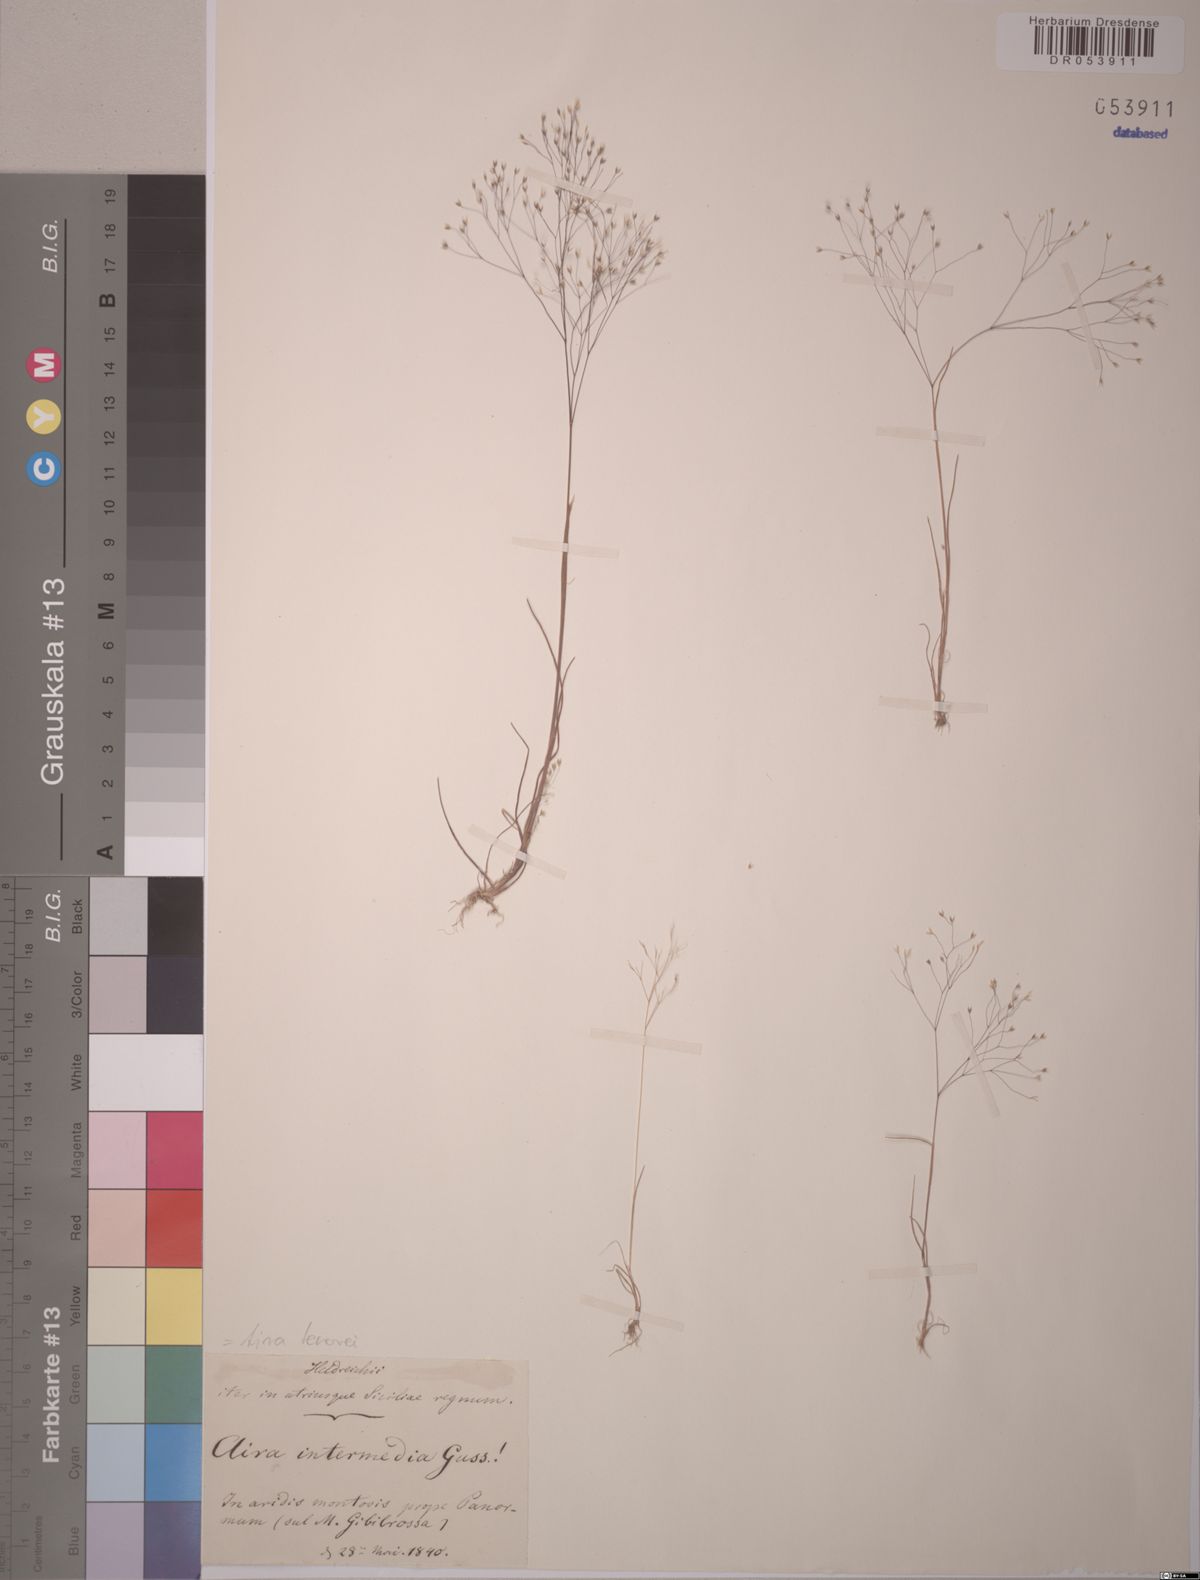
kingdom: Plantae
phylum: Tracheophyta
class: Liliopsida
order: Poales
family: Poaceae
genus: Aira
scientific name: Aira tenorei
